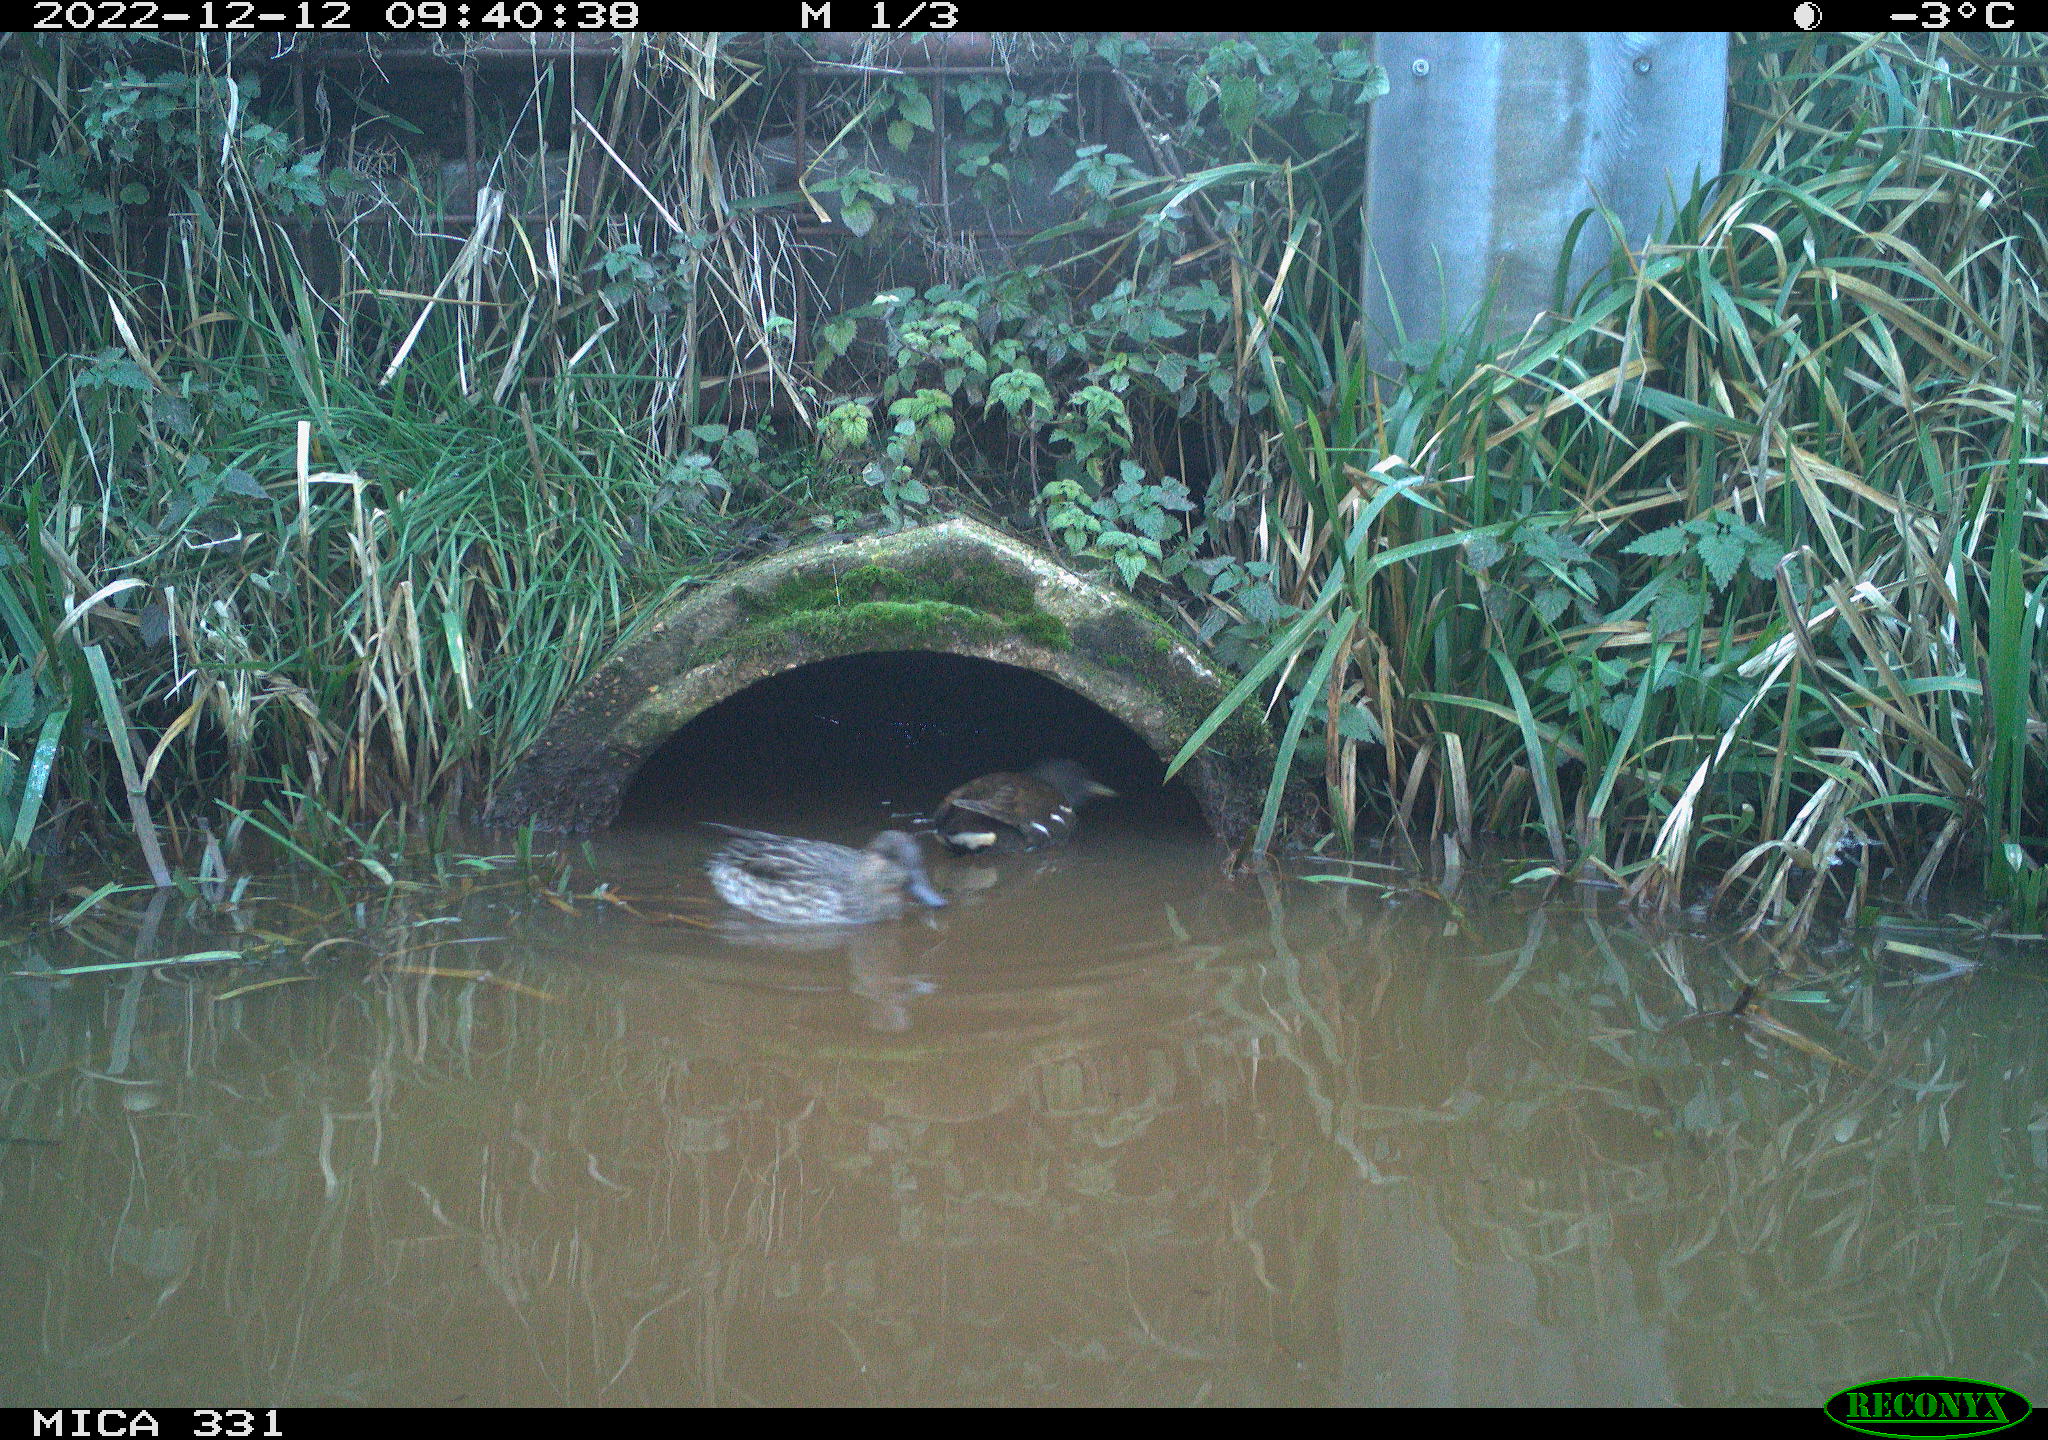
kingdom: Animalia
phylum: Chordata
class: Aves
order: Gruiformes
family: Rallidae
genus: Gallinula
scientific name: Gallinula chloropus
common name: Common moorhen
